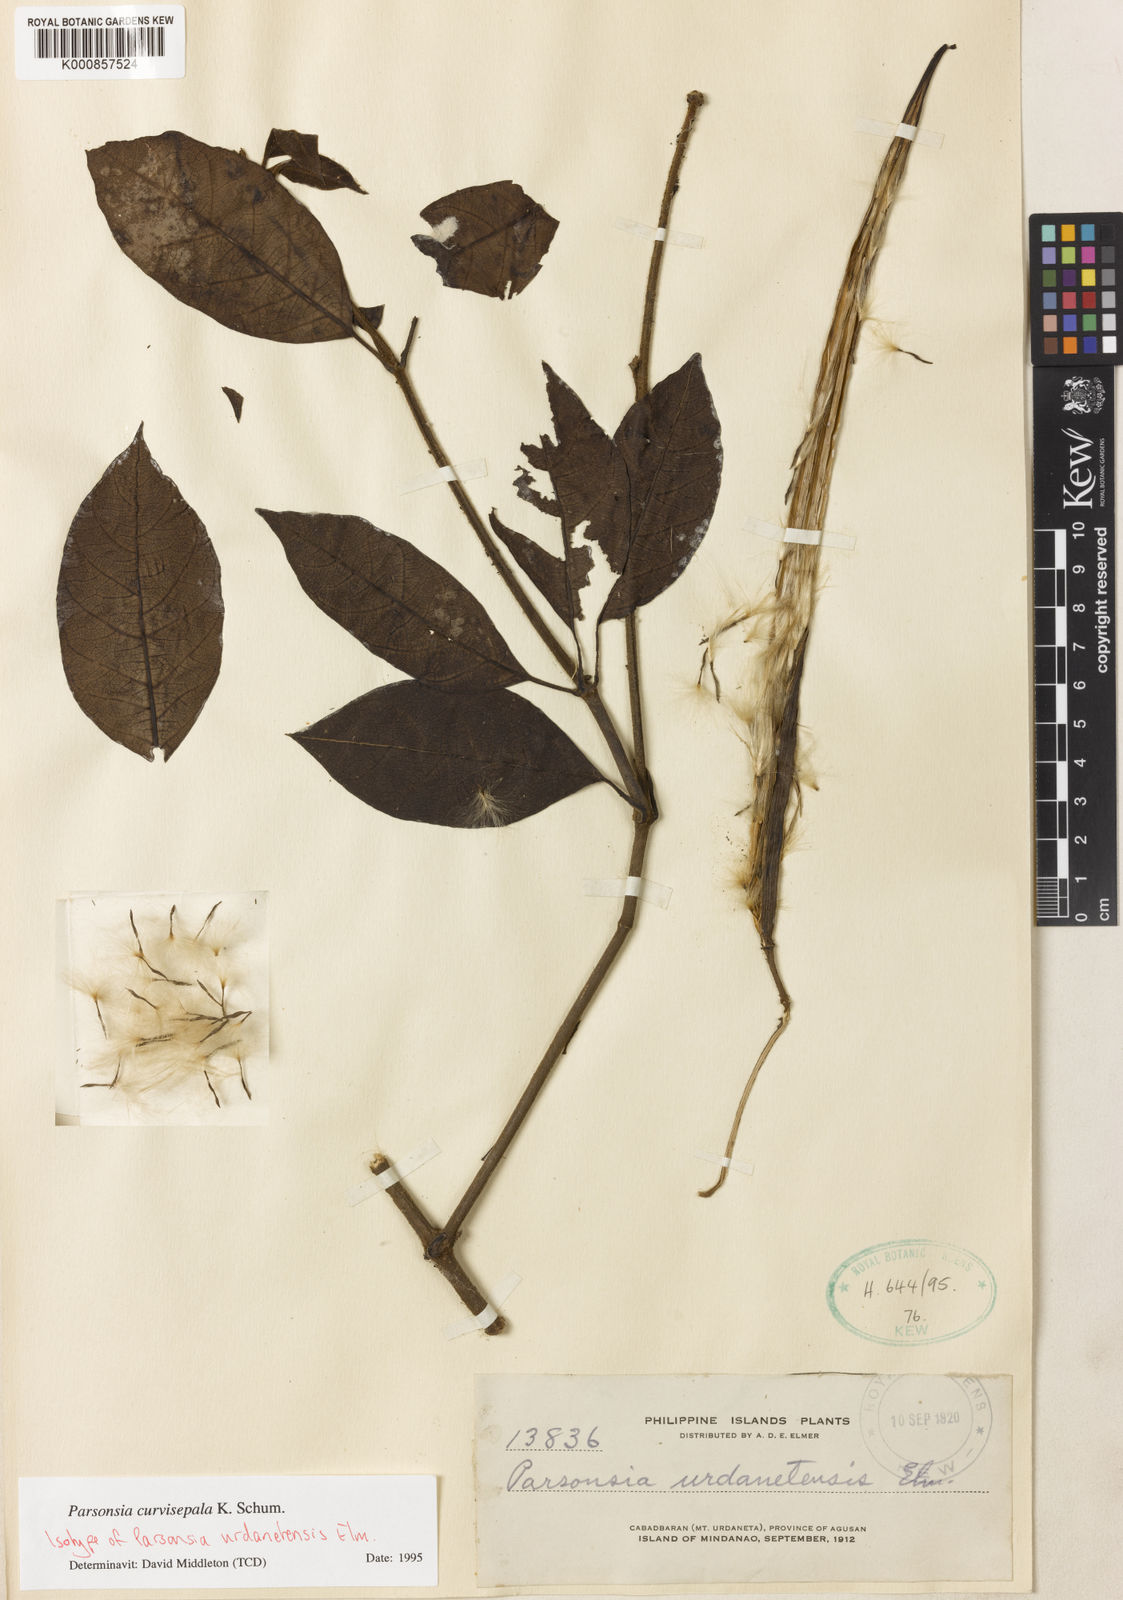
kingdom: Plantae
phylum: Tracheophyta
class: Magnoliopsida
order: Gentianales
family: Apocynaceae
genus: Parsonsia
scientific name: Parsonsia curvisepala
